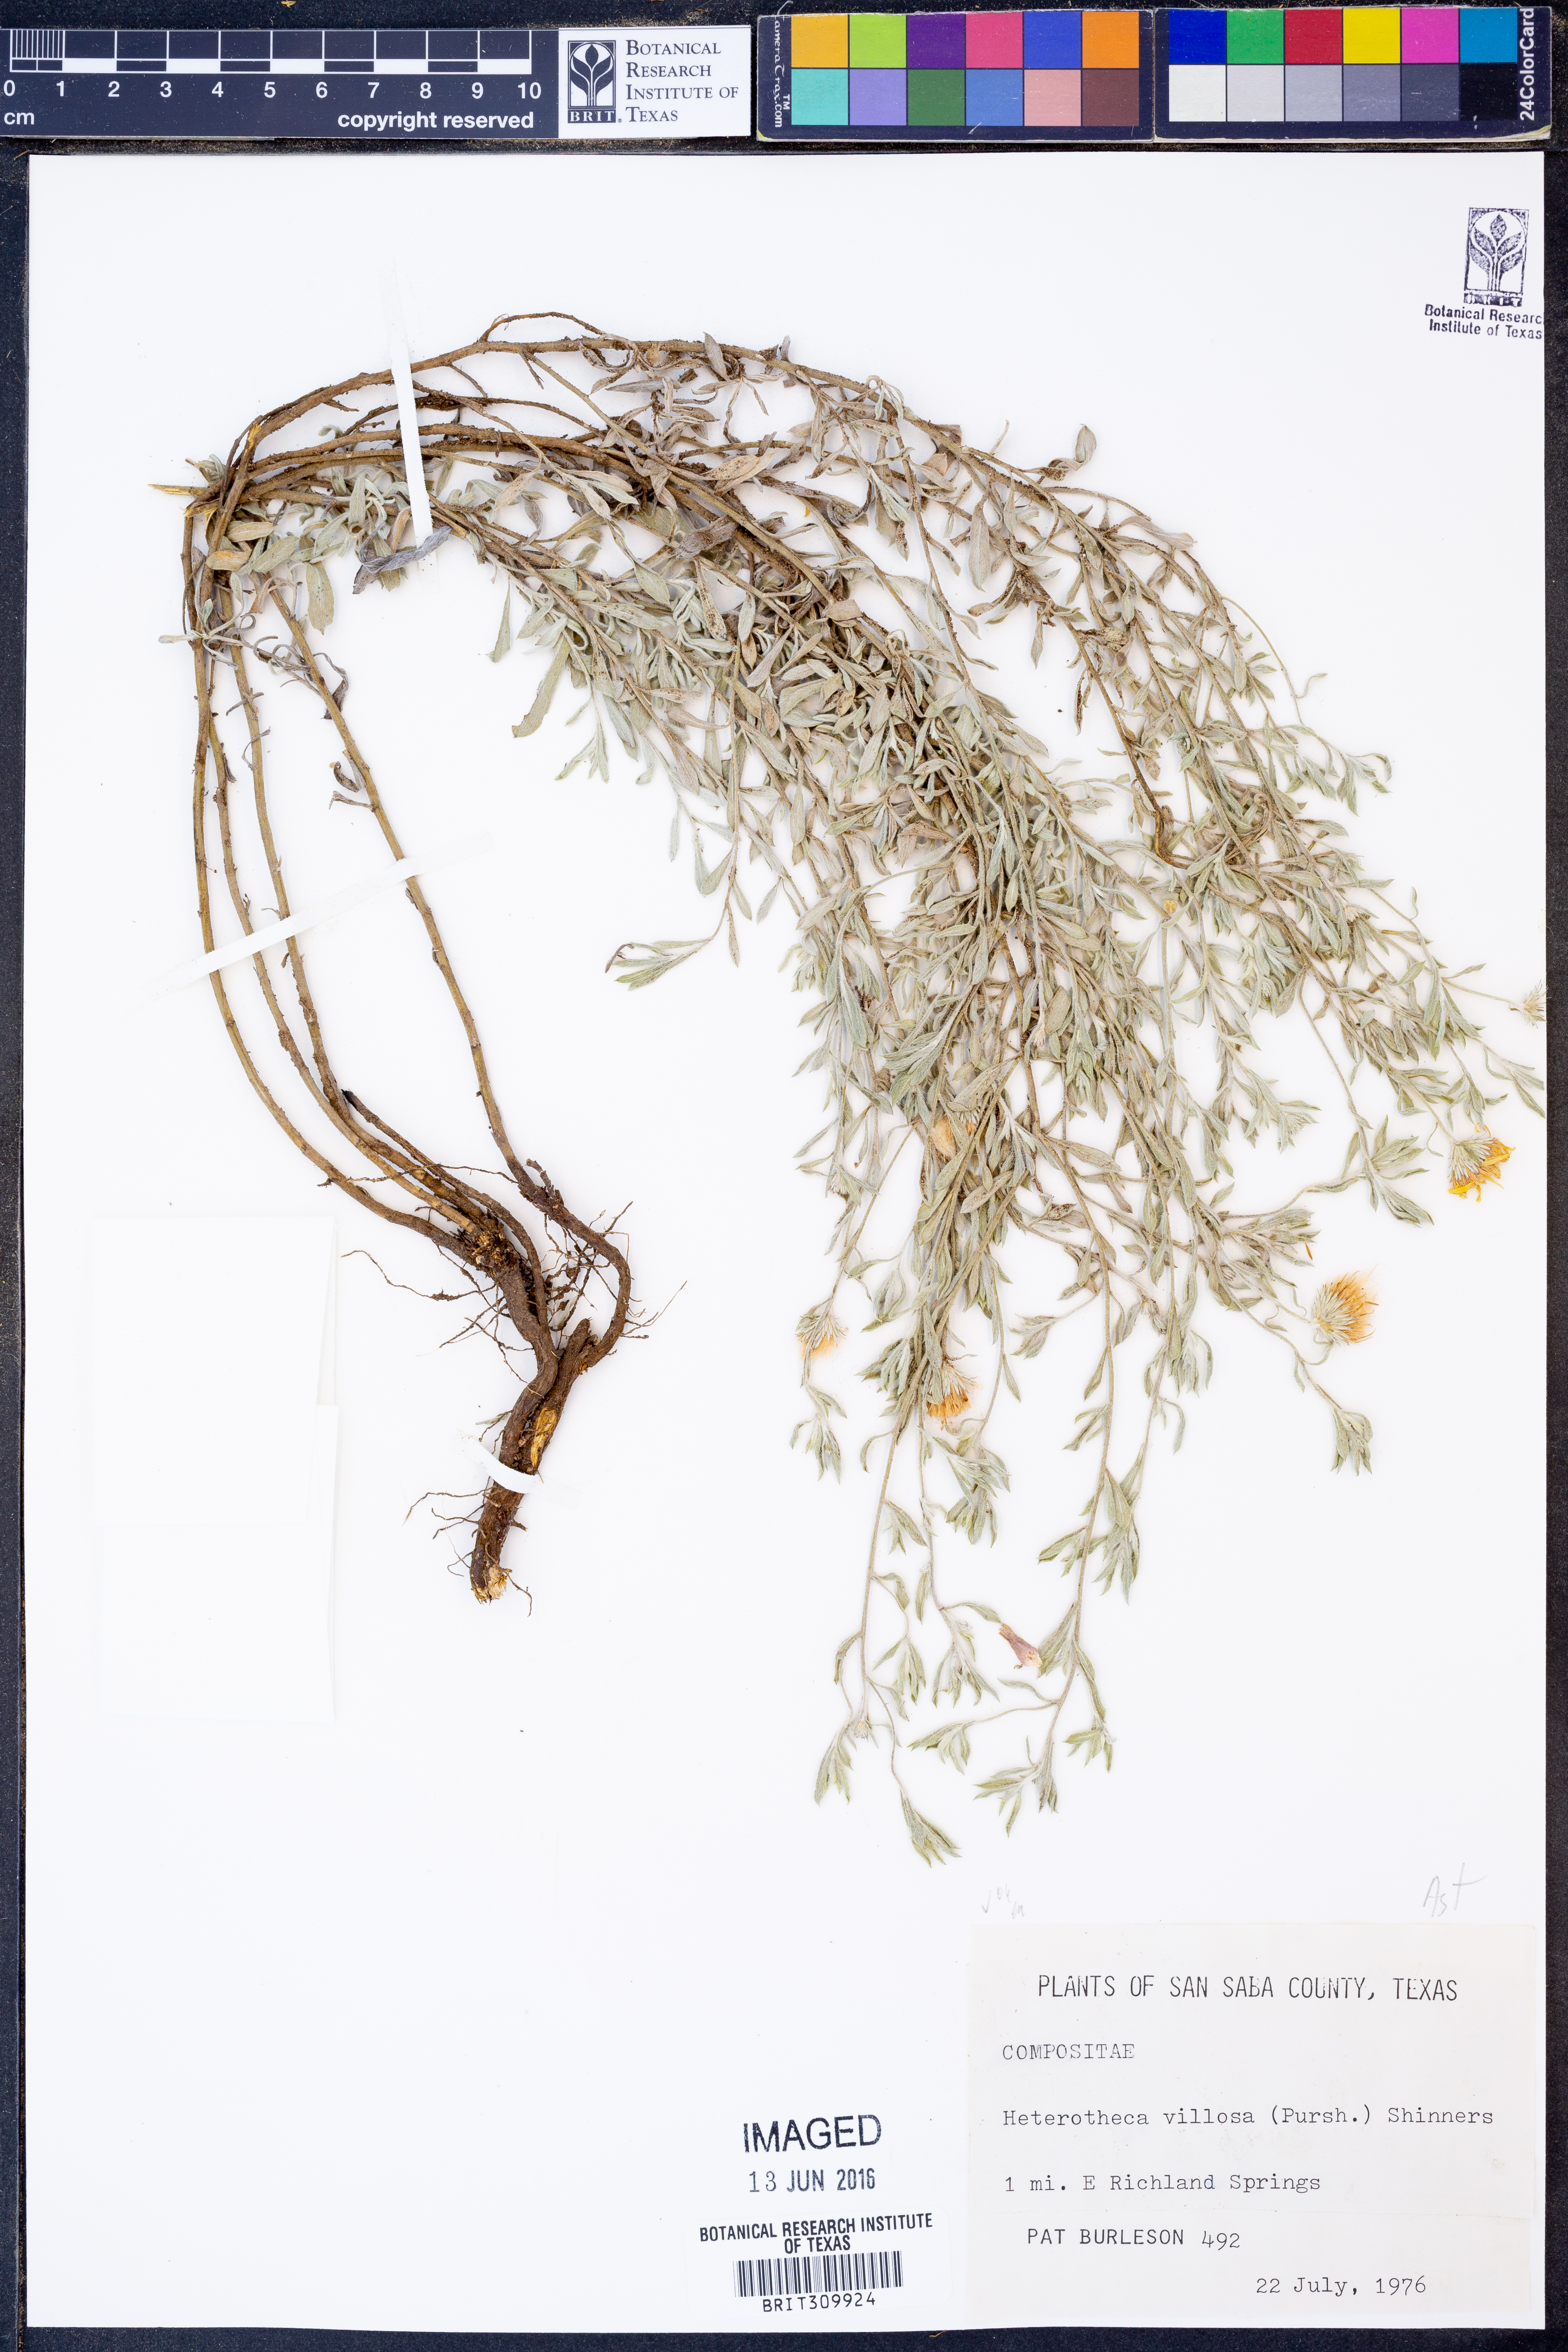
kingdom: Plantae
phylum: Tracheophyta
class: Magnoliopsida
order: Asterales
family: Asteraceae
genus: Heterotheca
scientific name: Heterotheca villosa
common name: Hairy false goldenaster
